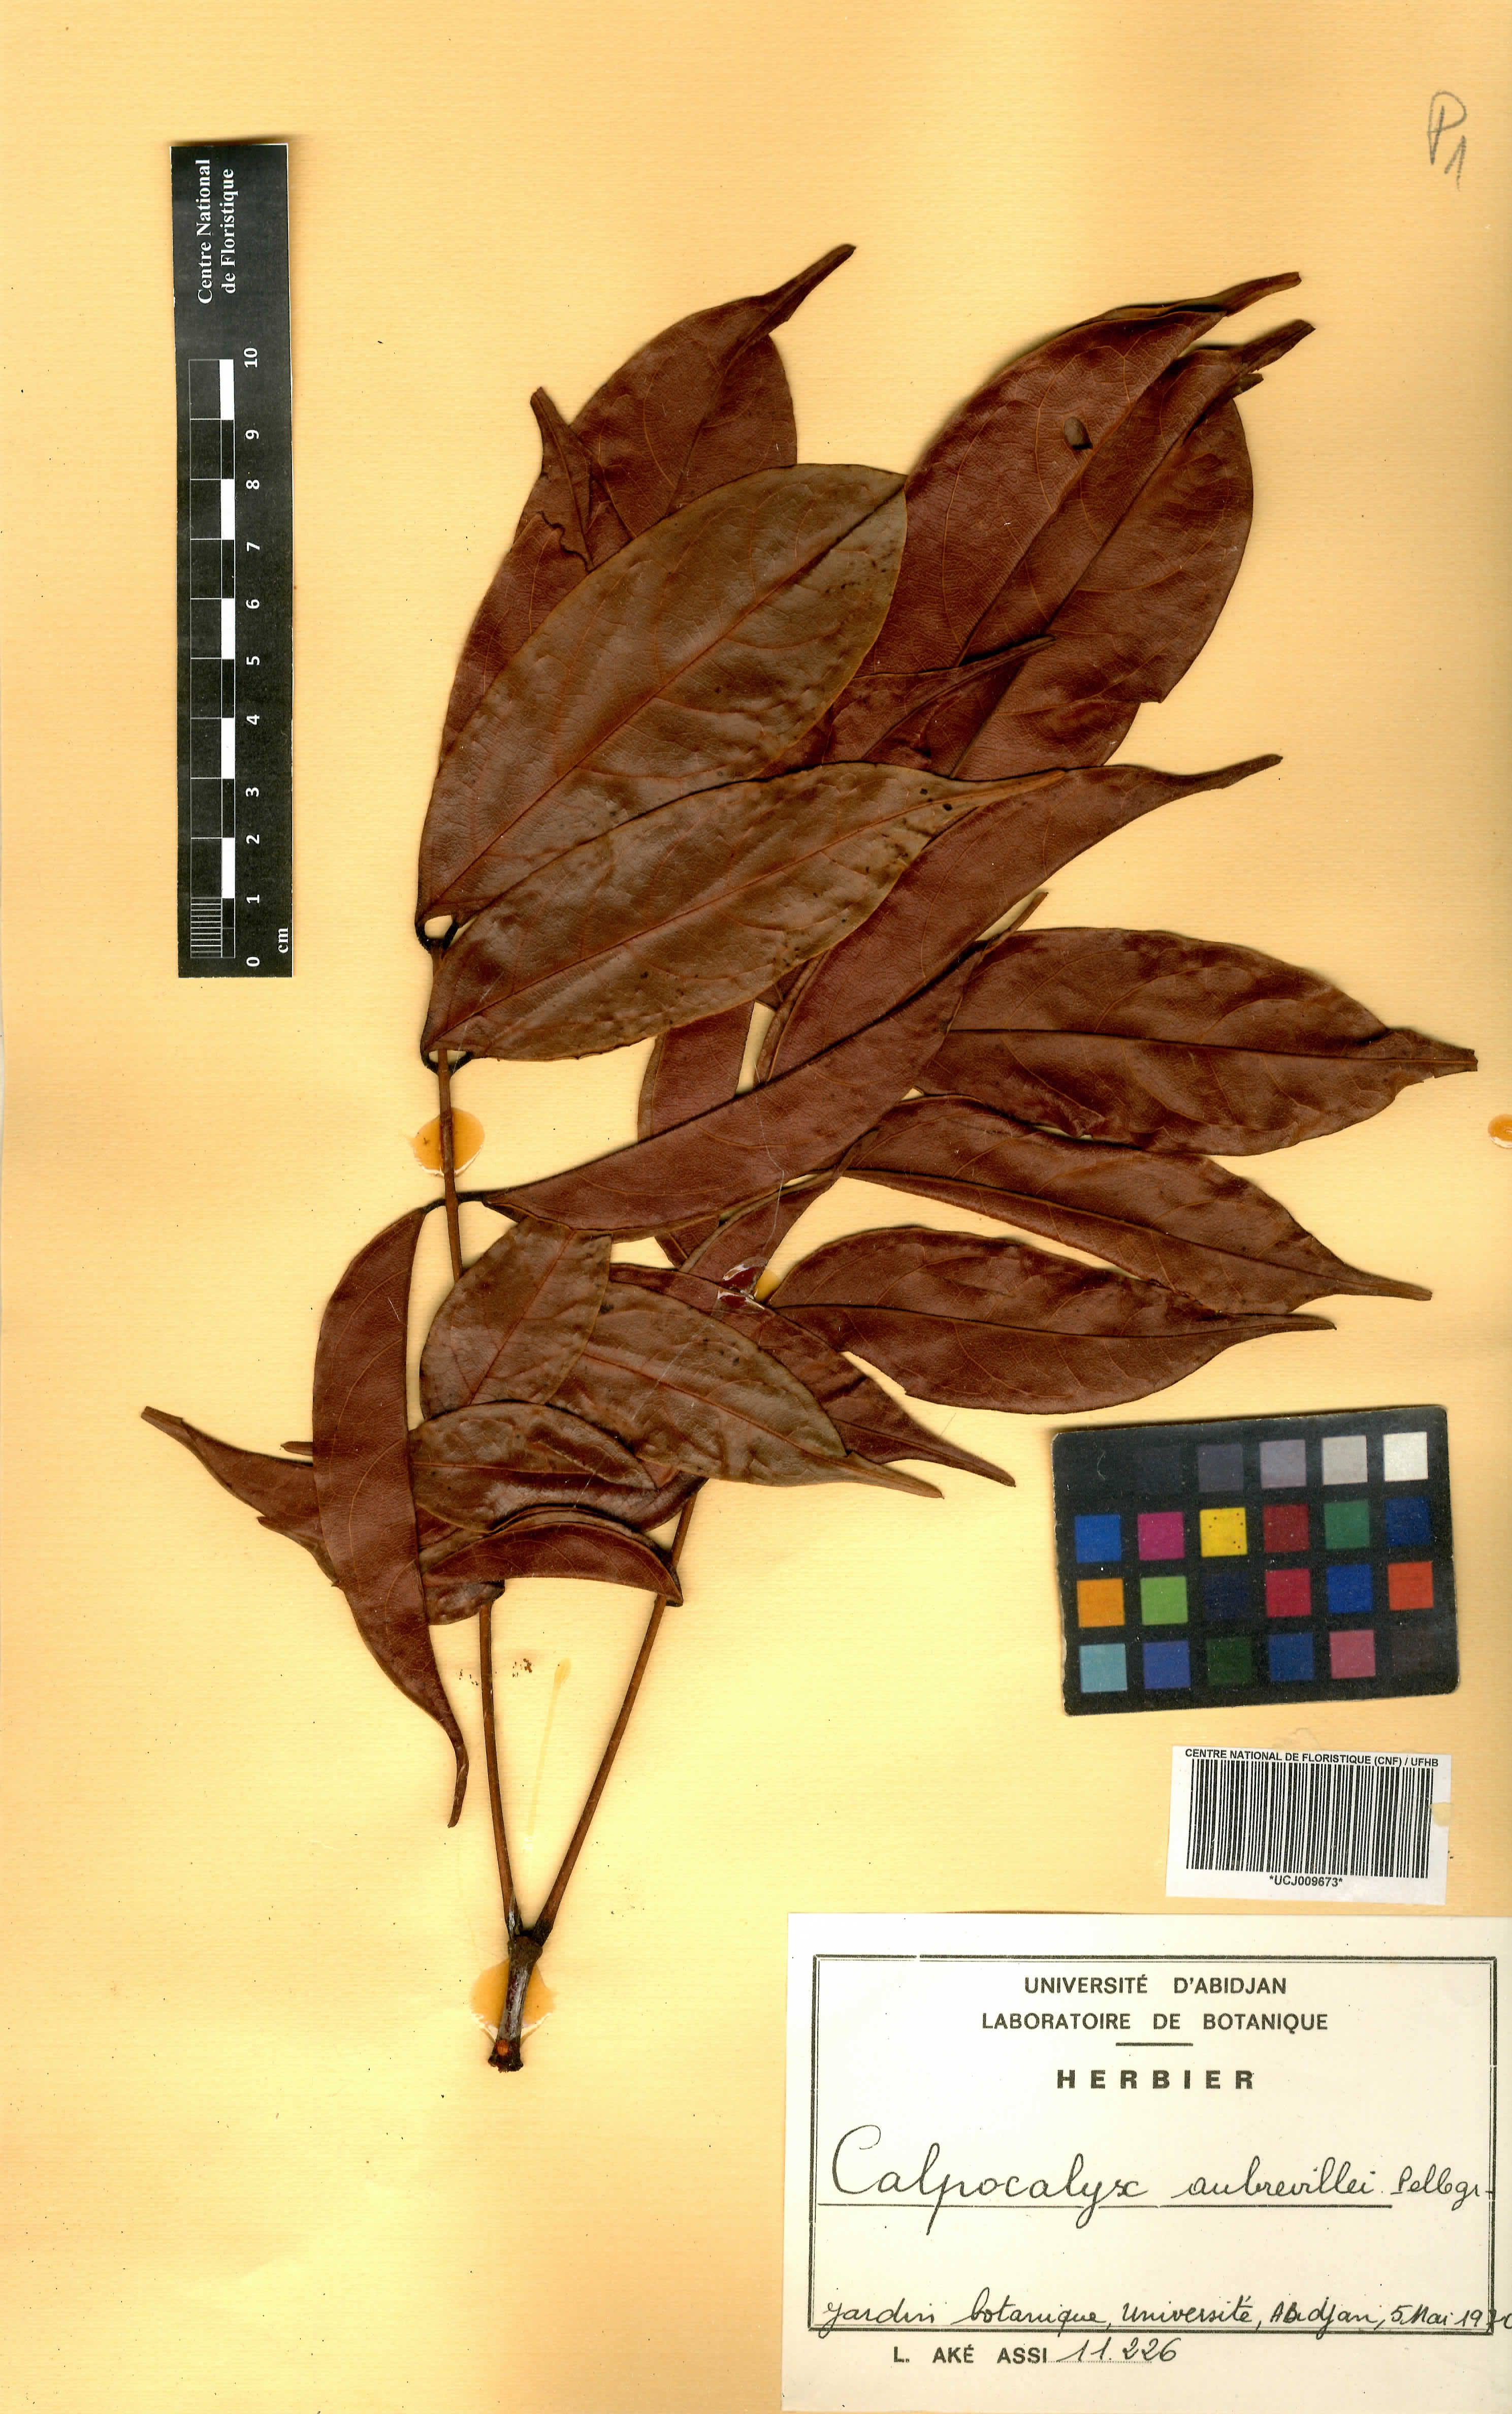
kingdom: Plantae
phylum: Tracheophyta
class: Magnoliopsida
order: Fabales
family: Fabaceae
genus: Calpocalyx
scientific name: Calpocalyx aubrevillei
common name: Badio (calpocalz)
